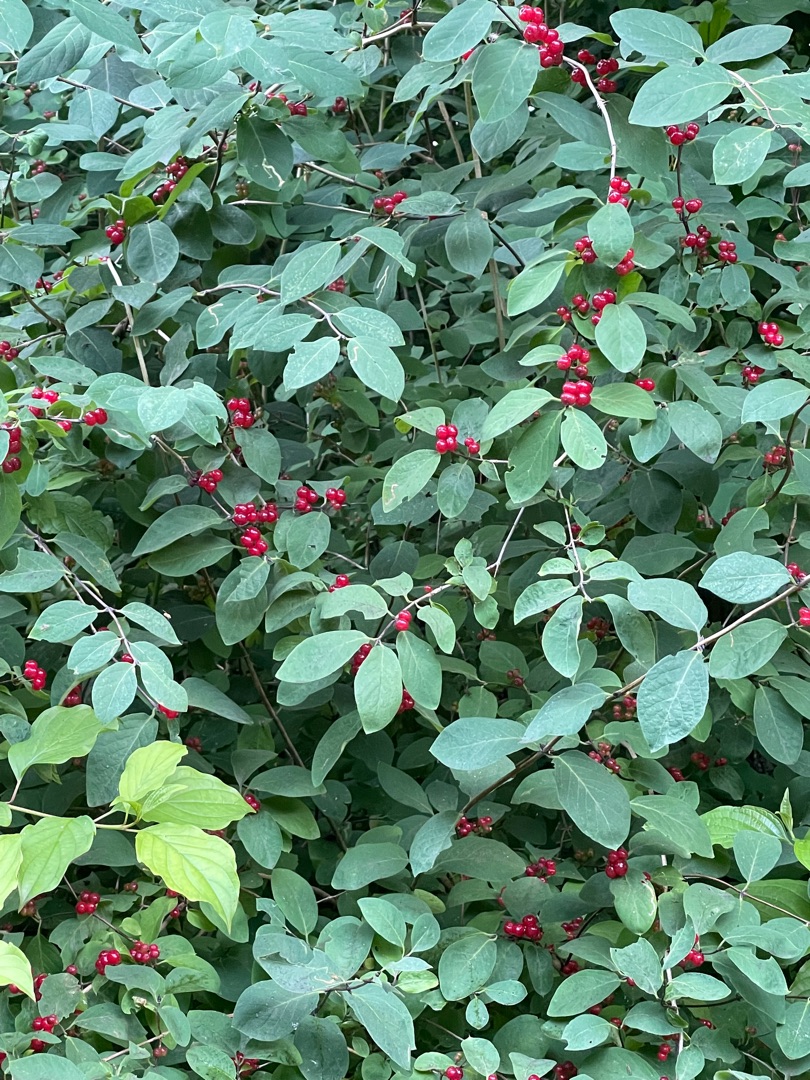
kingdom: Plantae
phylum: Tracheophyta
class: Magnoliopsida
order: Dipsacales
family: Caprifoliaceae
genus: Lonicera
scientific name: Lonicera xylosteum
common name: Dunet gedeblad
